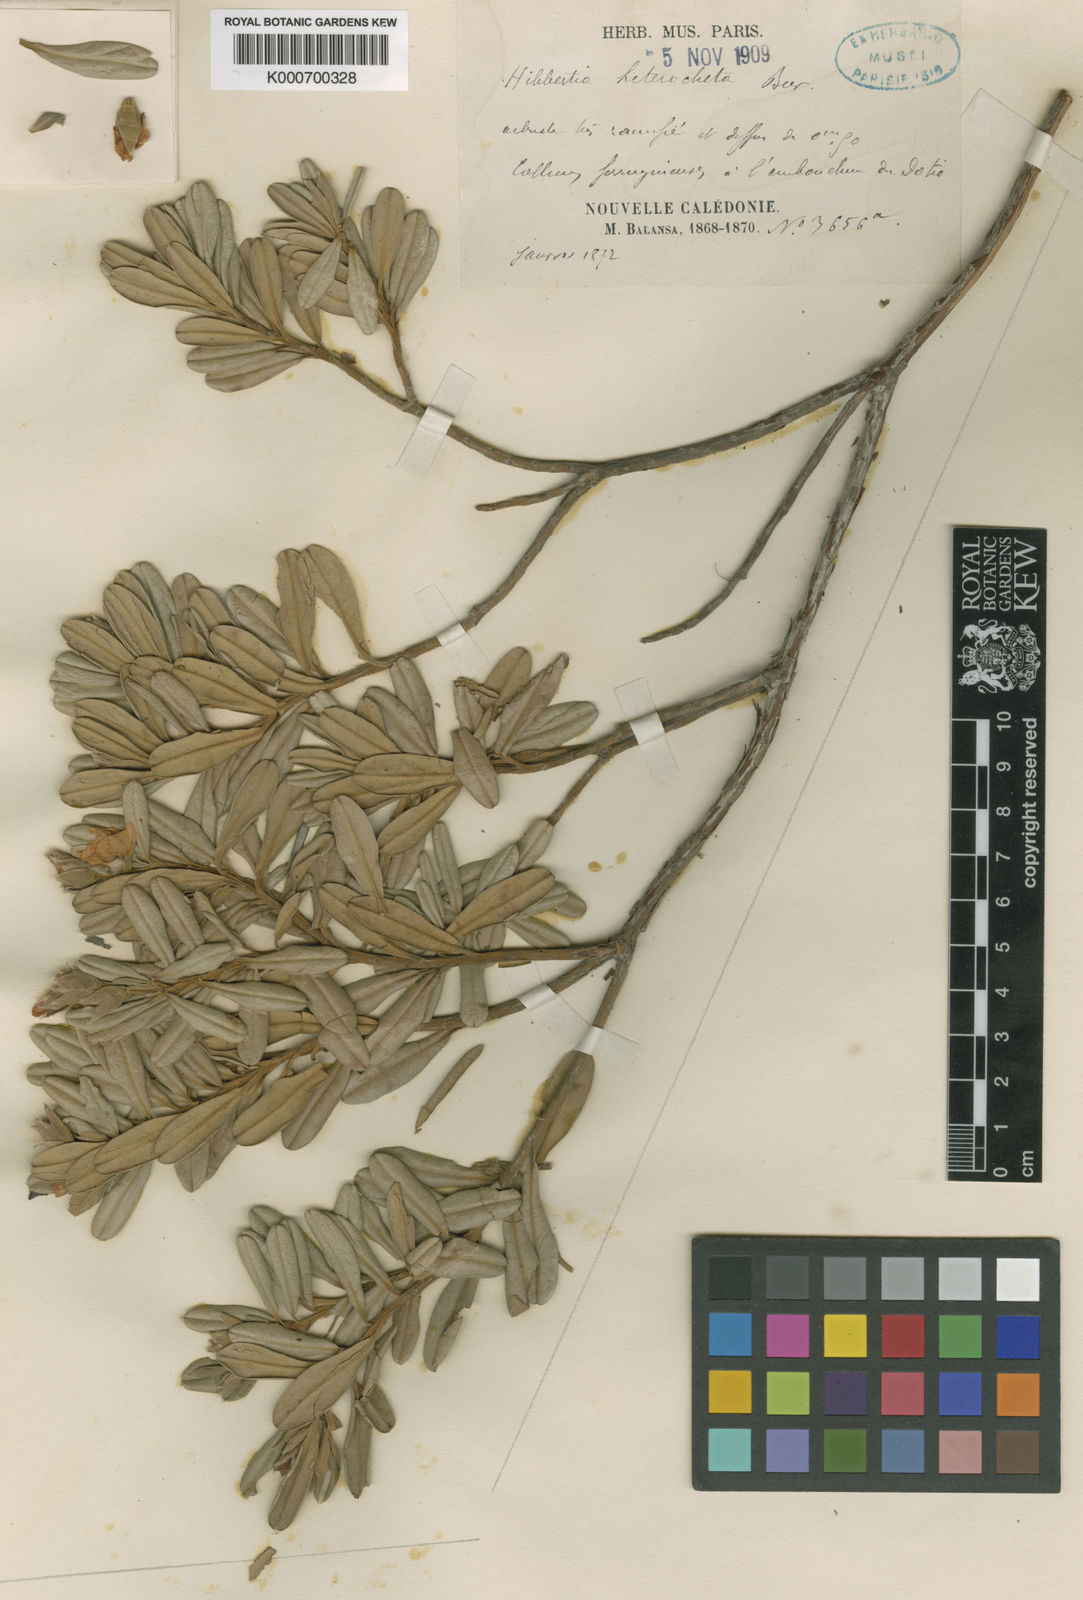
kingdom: Plantae
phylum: Tracheophyta
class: Magnoliopsida
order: Dilleniales
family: Dilleniaceae
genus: Hibbertia
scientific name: Hibbertia heterotricha
